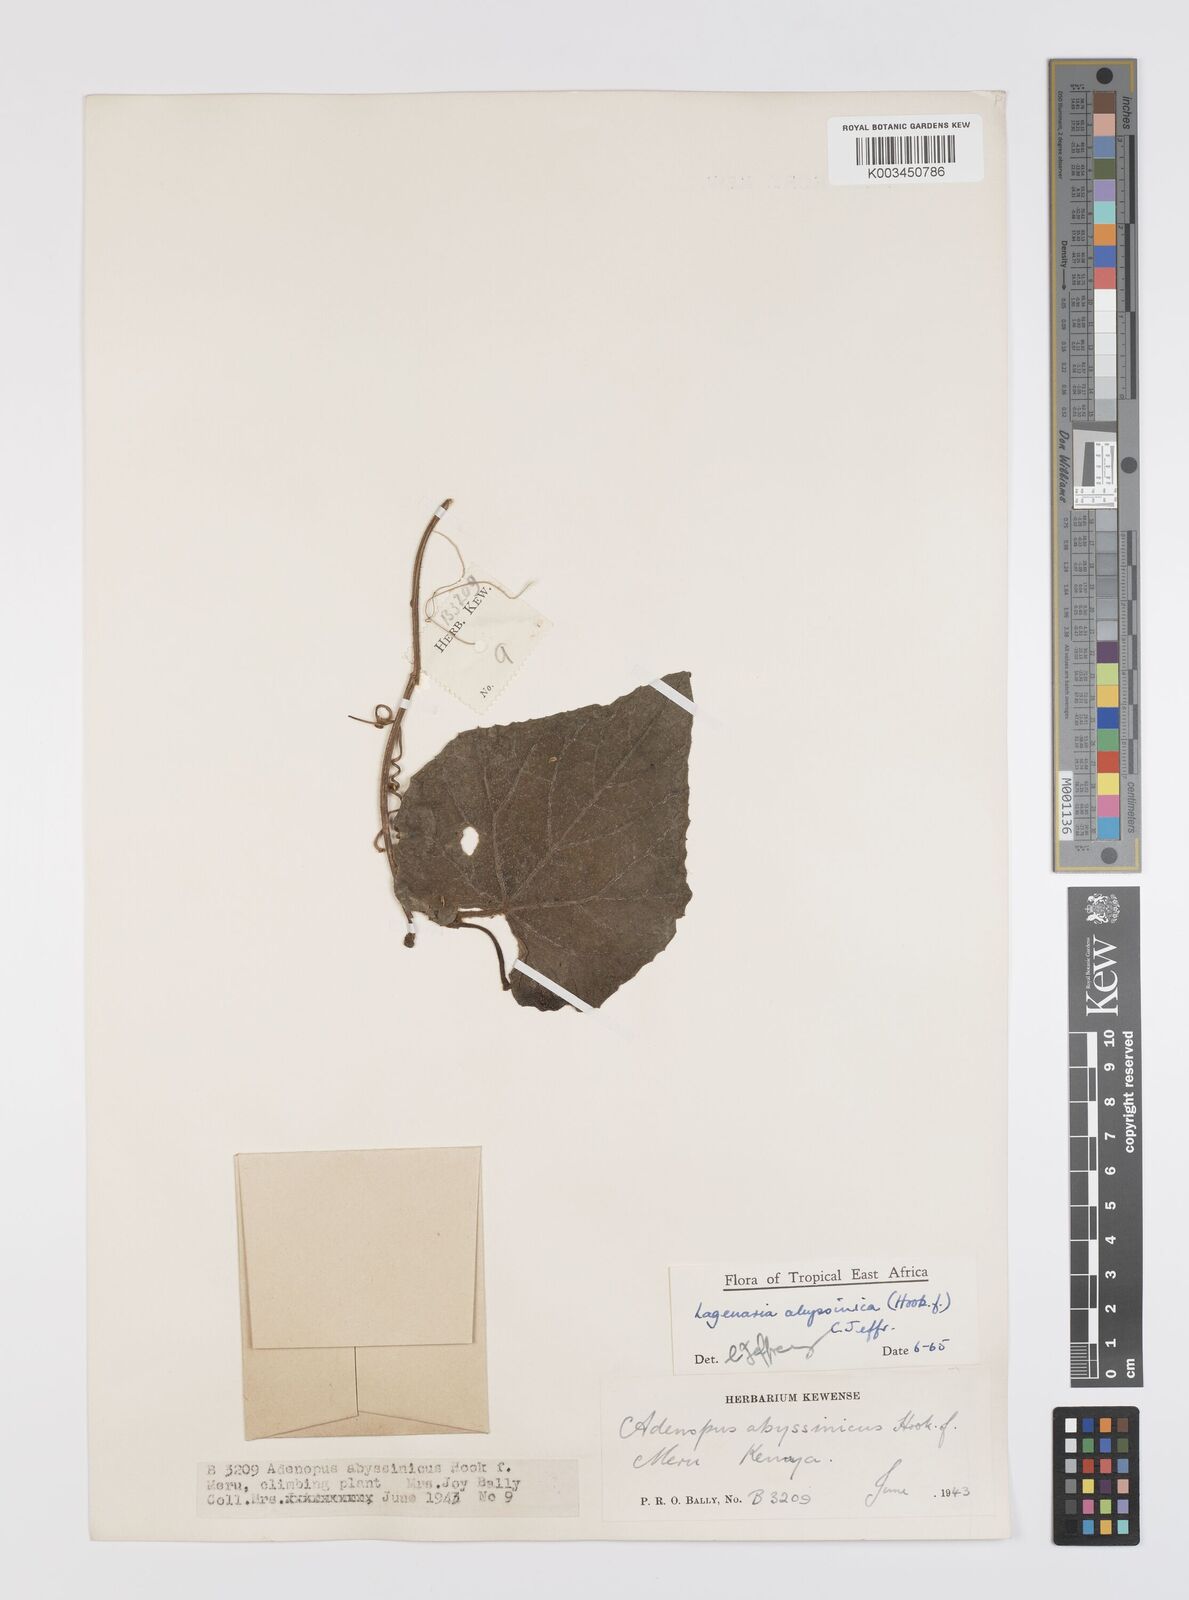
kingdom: Plantae
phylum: Tracheophyta
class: Magnoliopsida
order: Cucurbitales
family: Cucurbitaceae
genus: Lagenaria
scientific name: Lagenaria abyssinica
